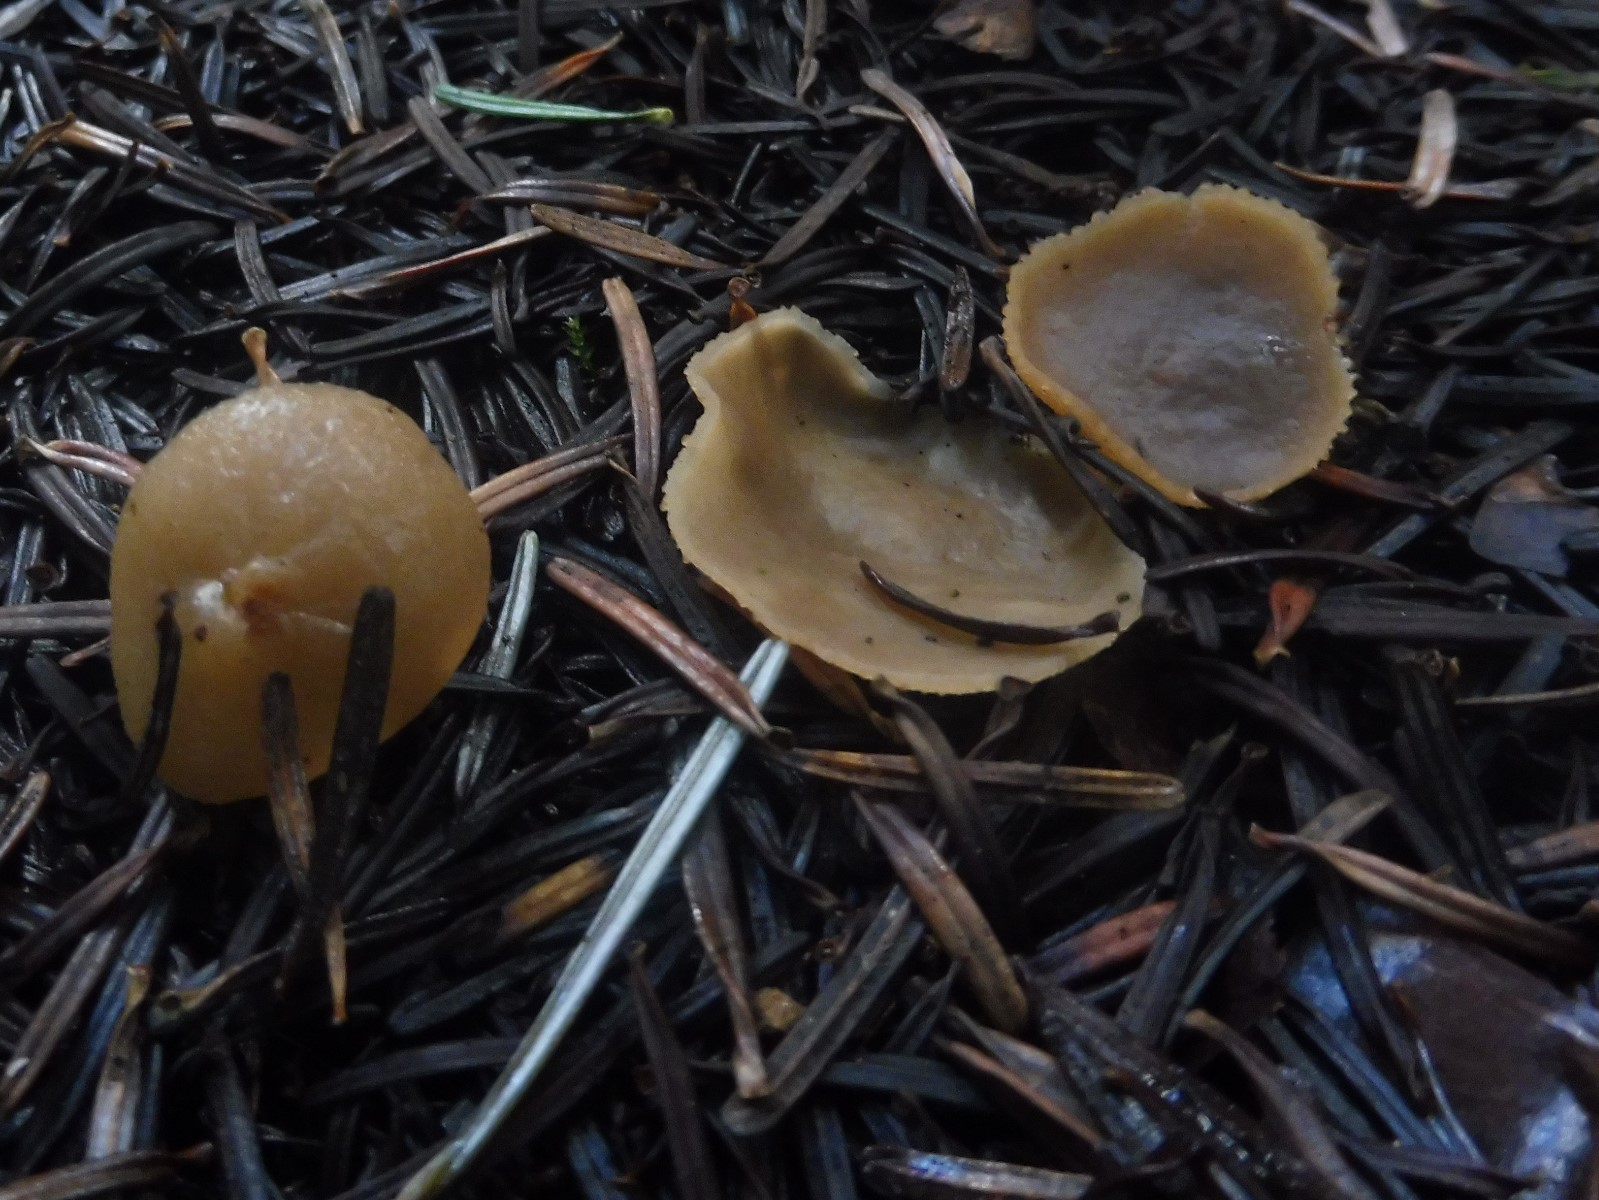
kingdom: Fungi
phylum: Ascomycota
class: Pezizomycetes
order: Pezizales
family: Pezizaceae
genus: Peziza
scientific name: Peziza
